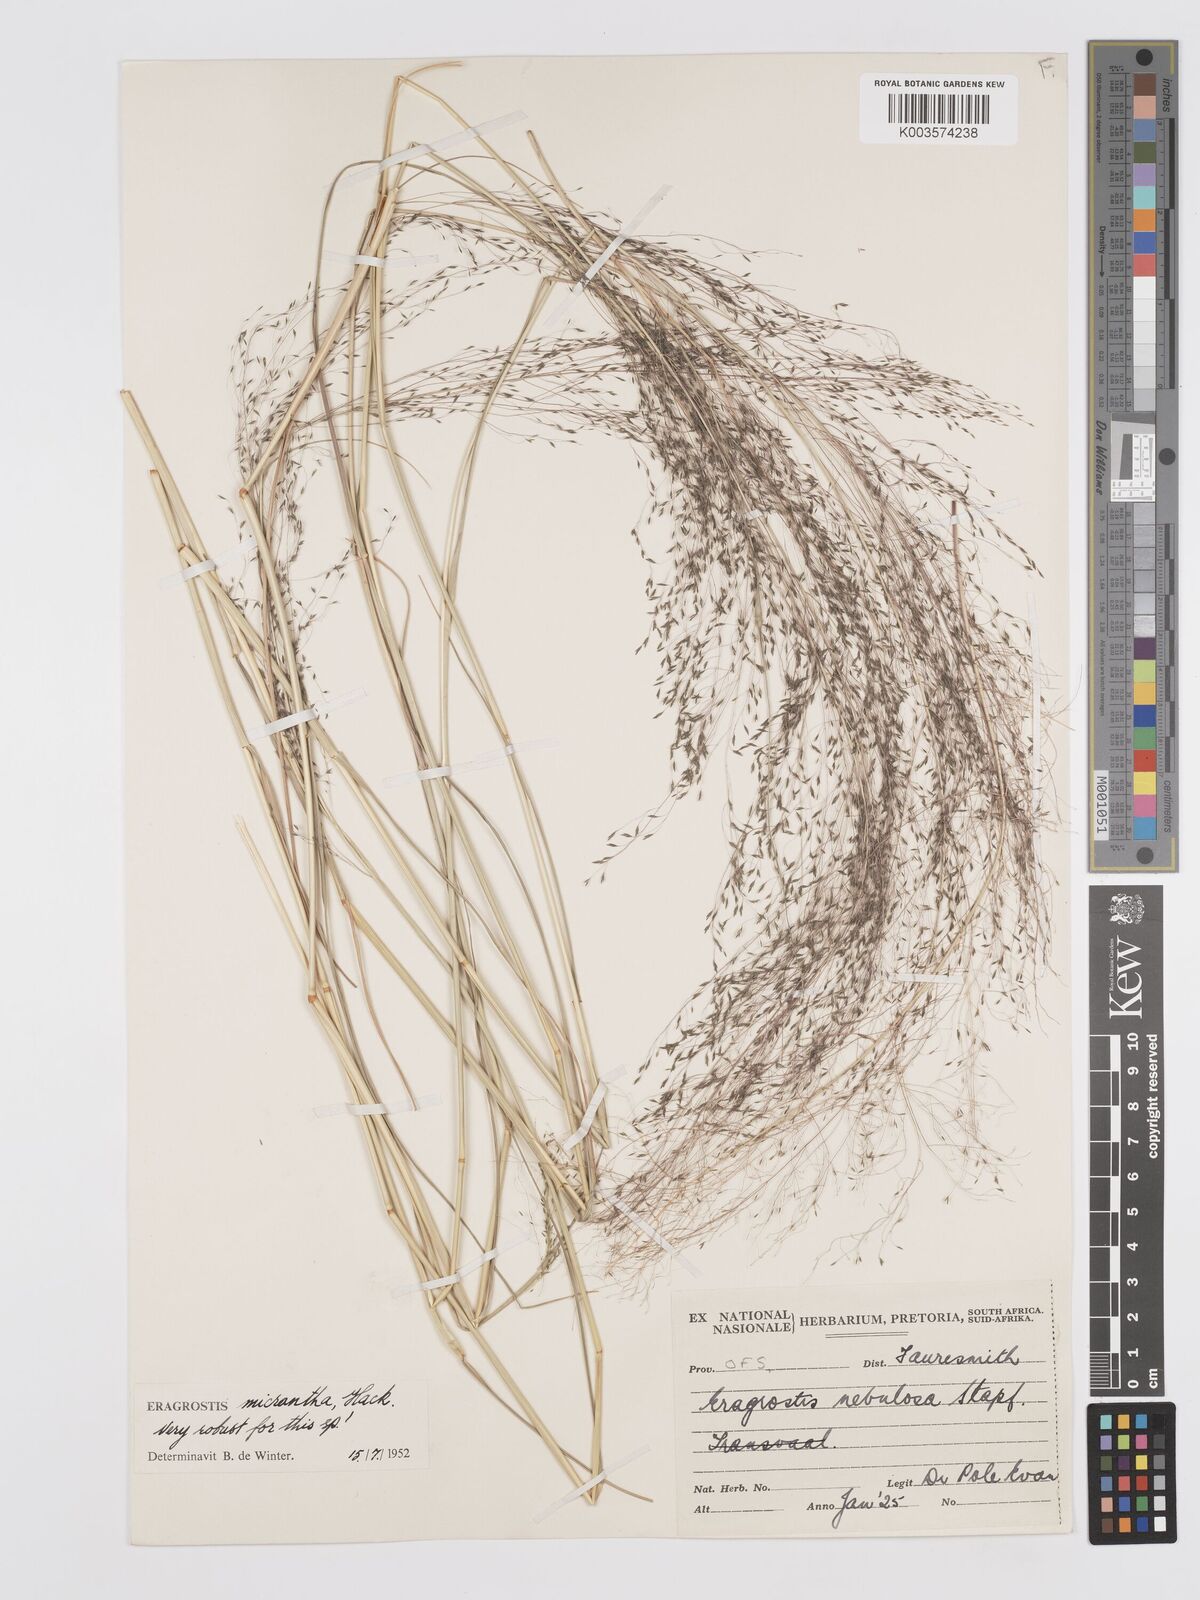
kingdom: Plantae
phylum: Tracheophyta
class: Liliopsida
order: Poales
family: Poaceae
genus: Eragrostis
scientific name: Eragrostis micrantha
